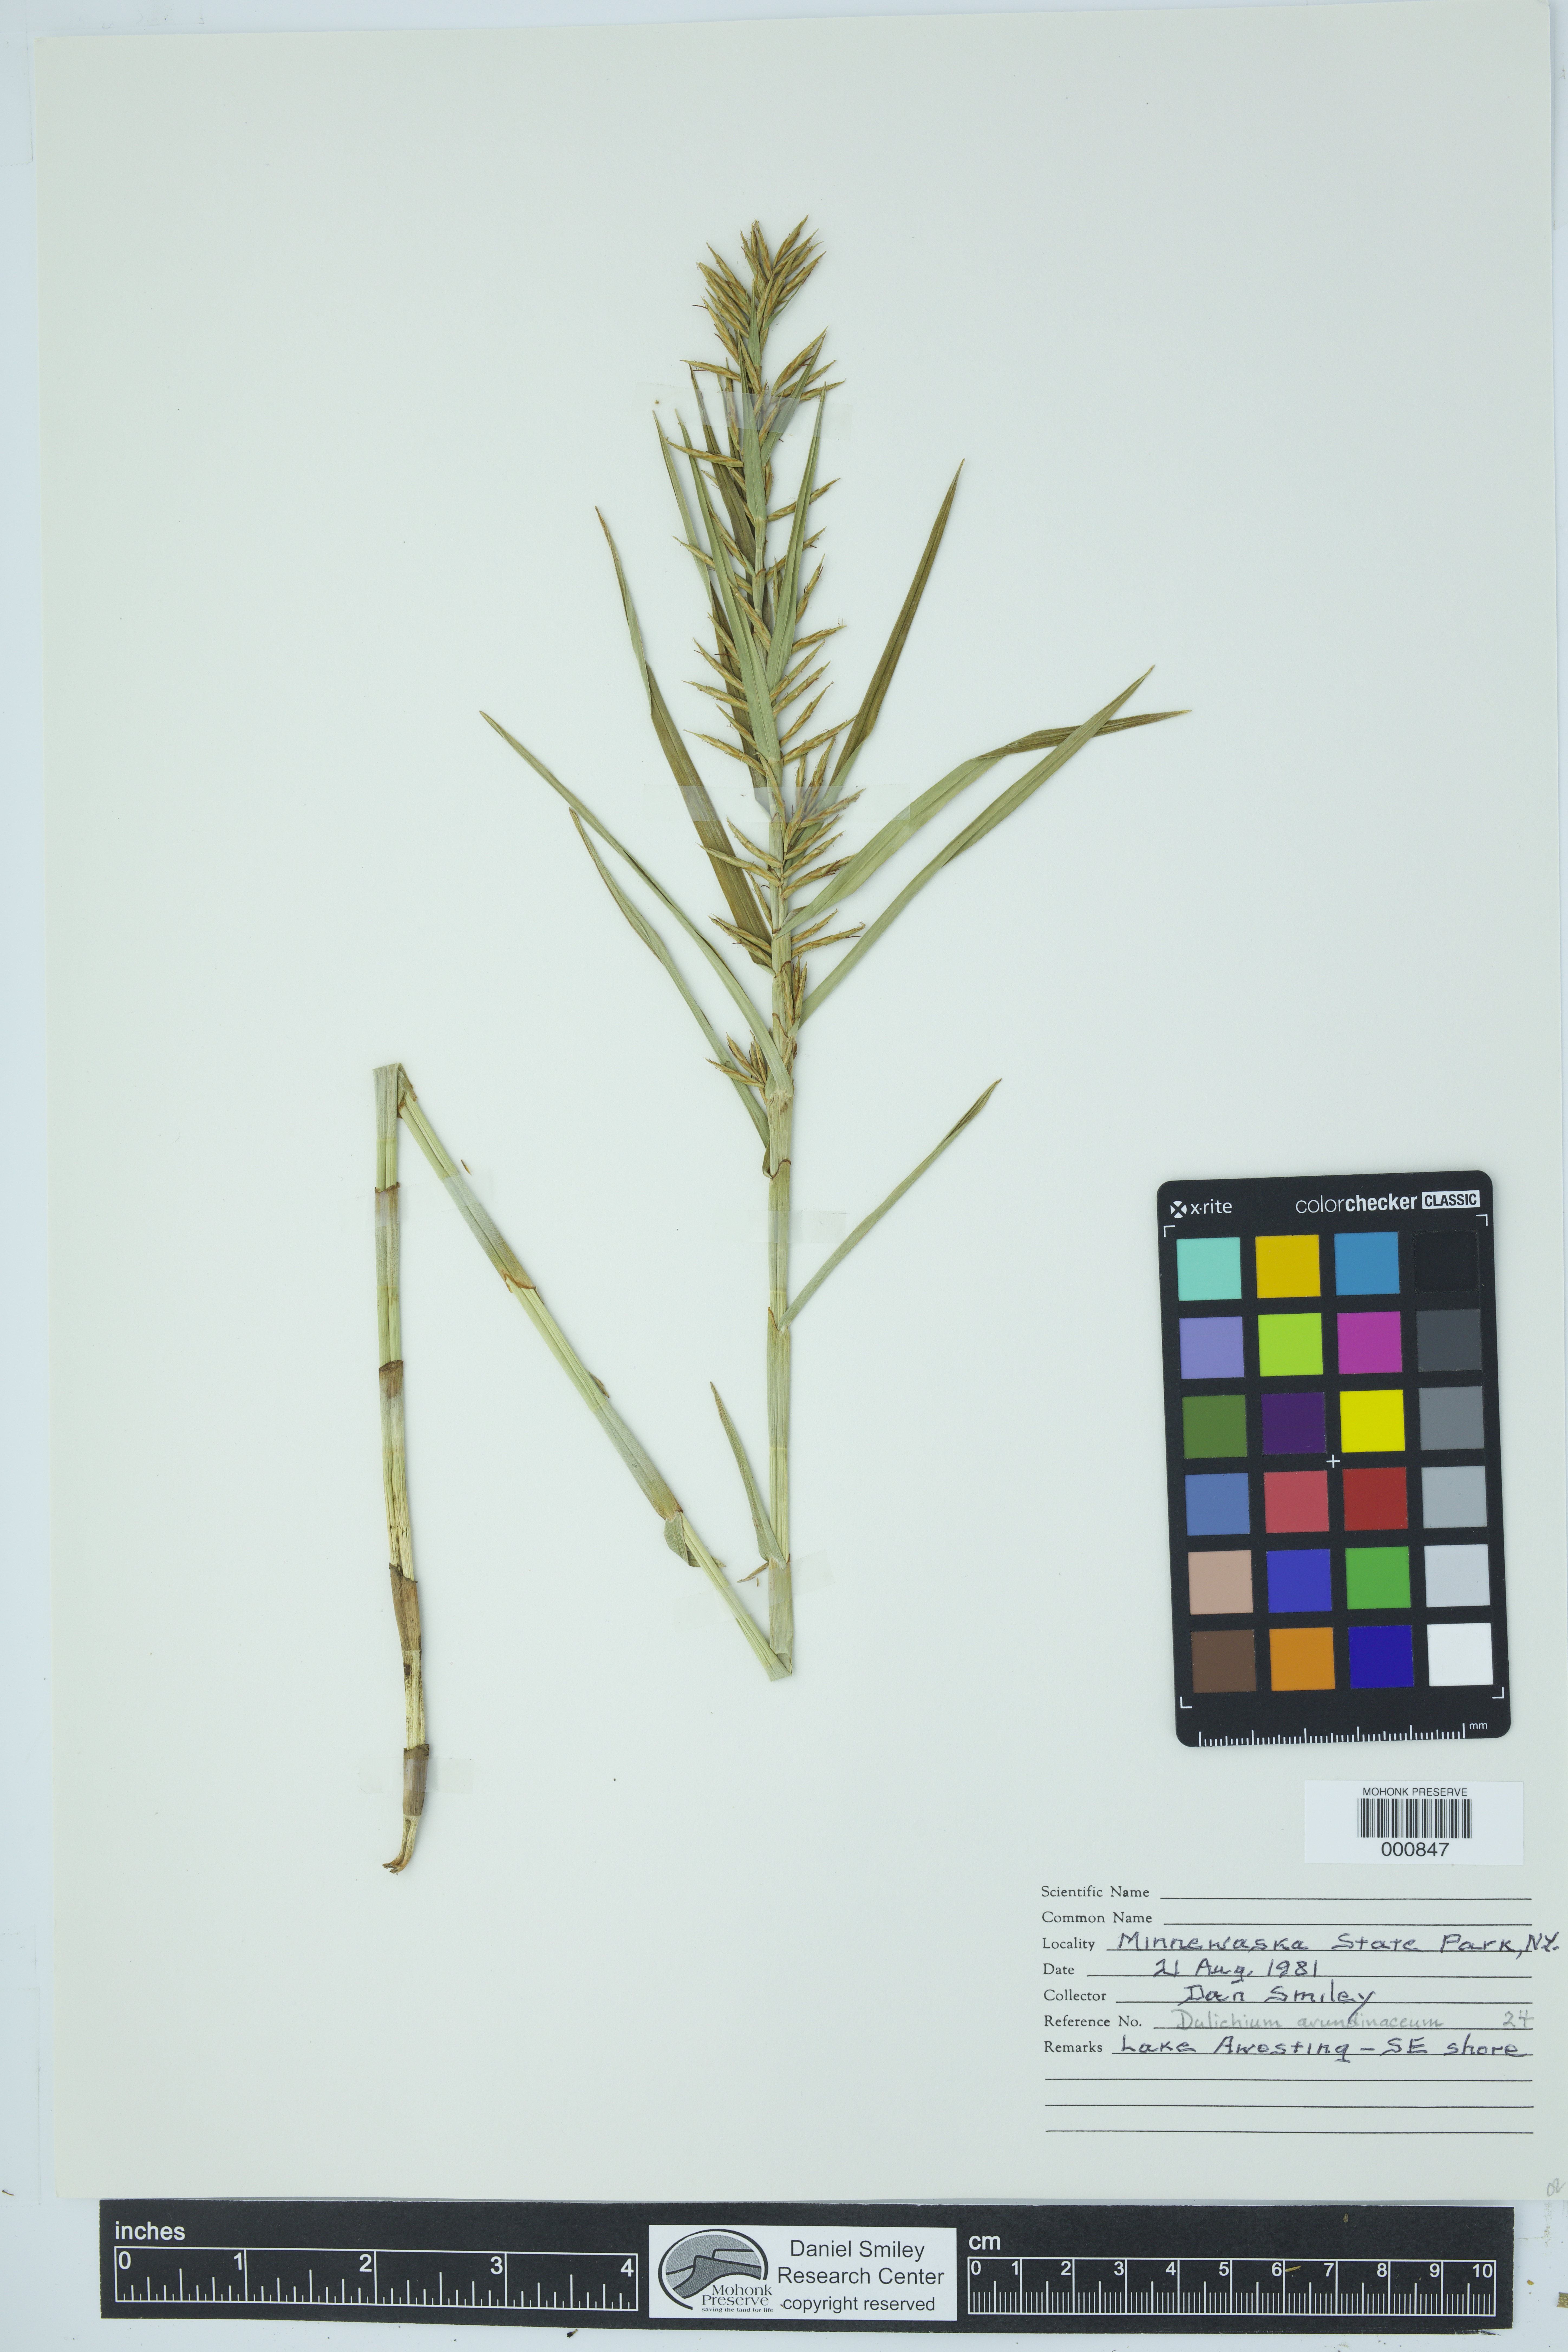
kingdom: Plantae
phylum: Tracheophyta
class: Liliopsida
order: Poales
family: Cyperaceae
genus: Dulichium
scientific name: Dulichium arundinaceum
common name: Three-way sedge
